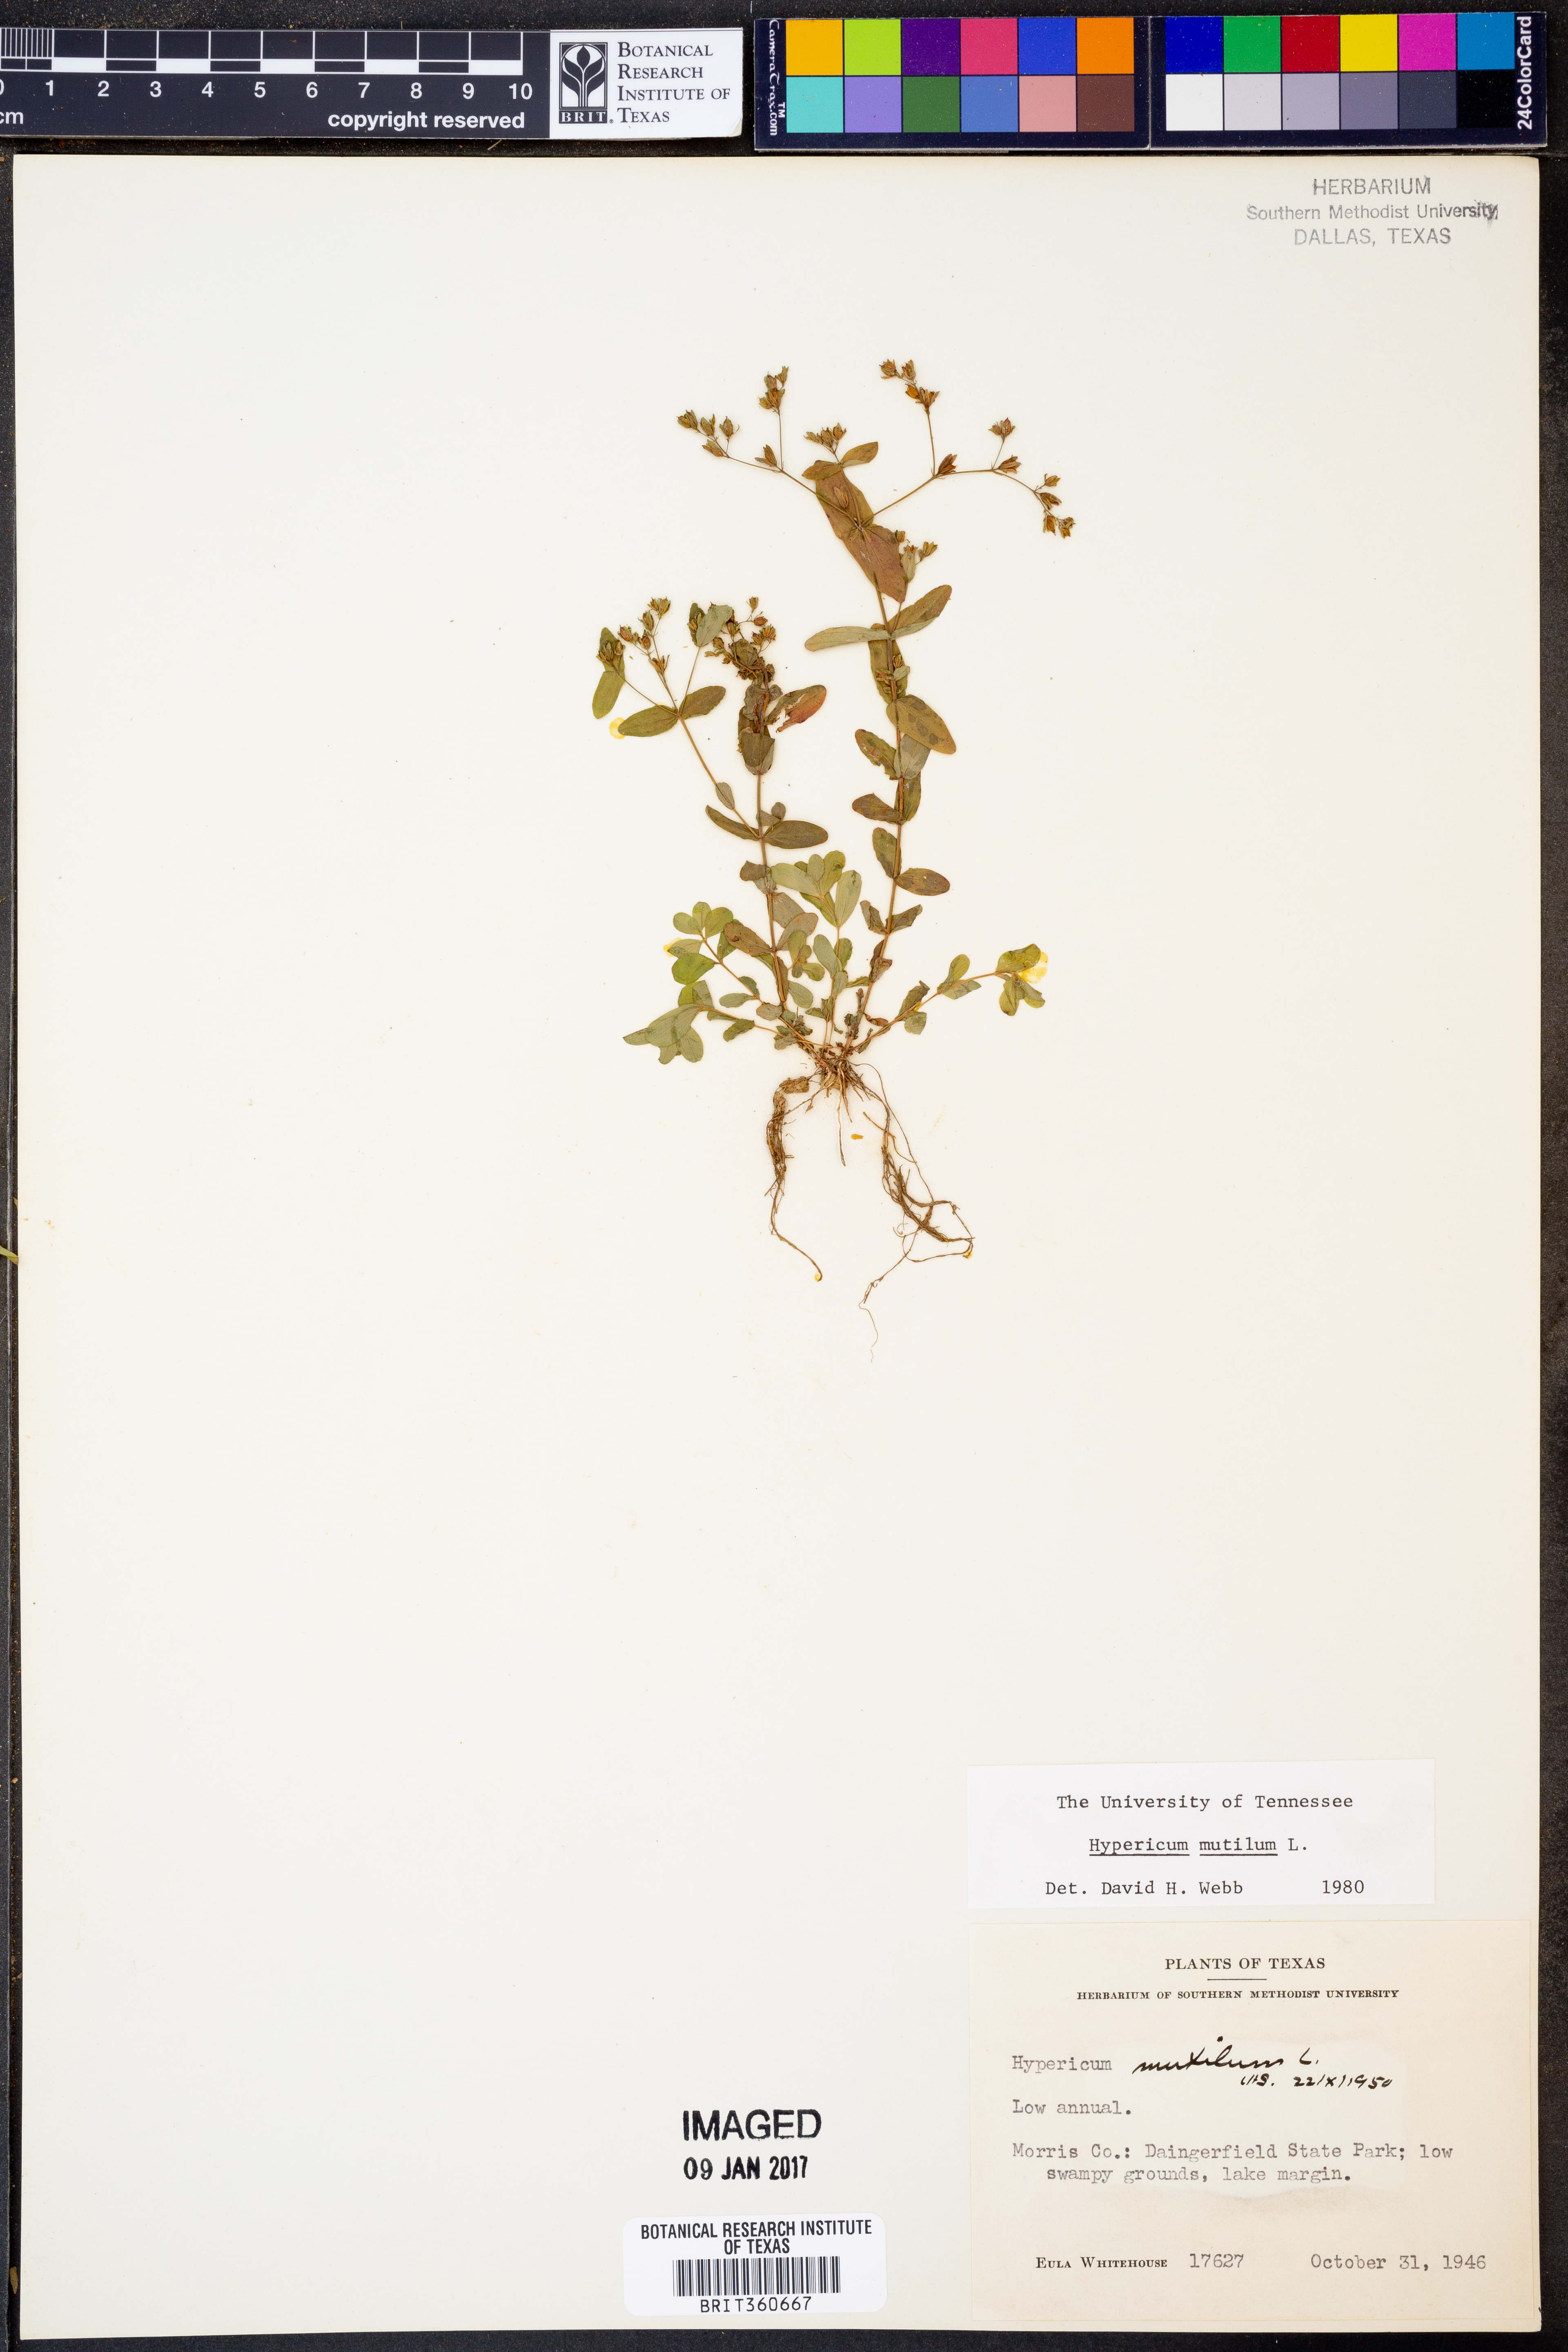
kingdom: Plantae
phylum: Tracheophyta
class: Magnoliopsida
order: Malpighiales
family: Hypericaceae
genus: Hypericum
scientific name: Hypericum mutilum
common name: Dwarf st. john's-wort
